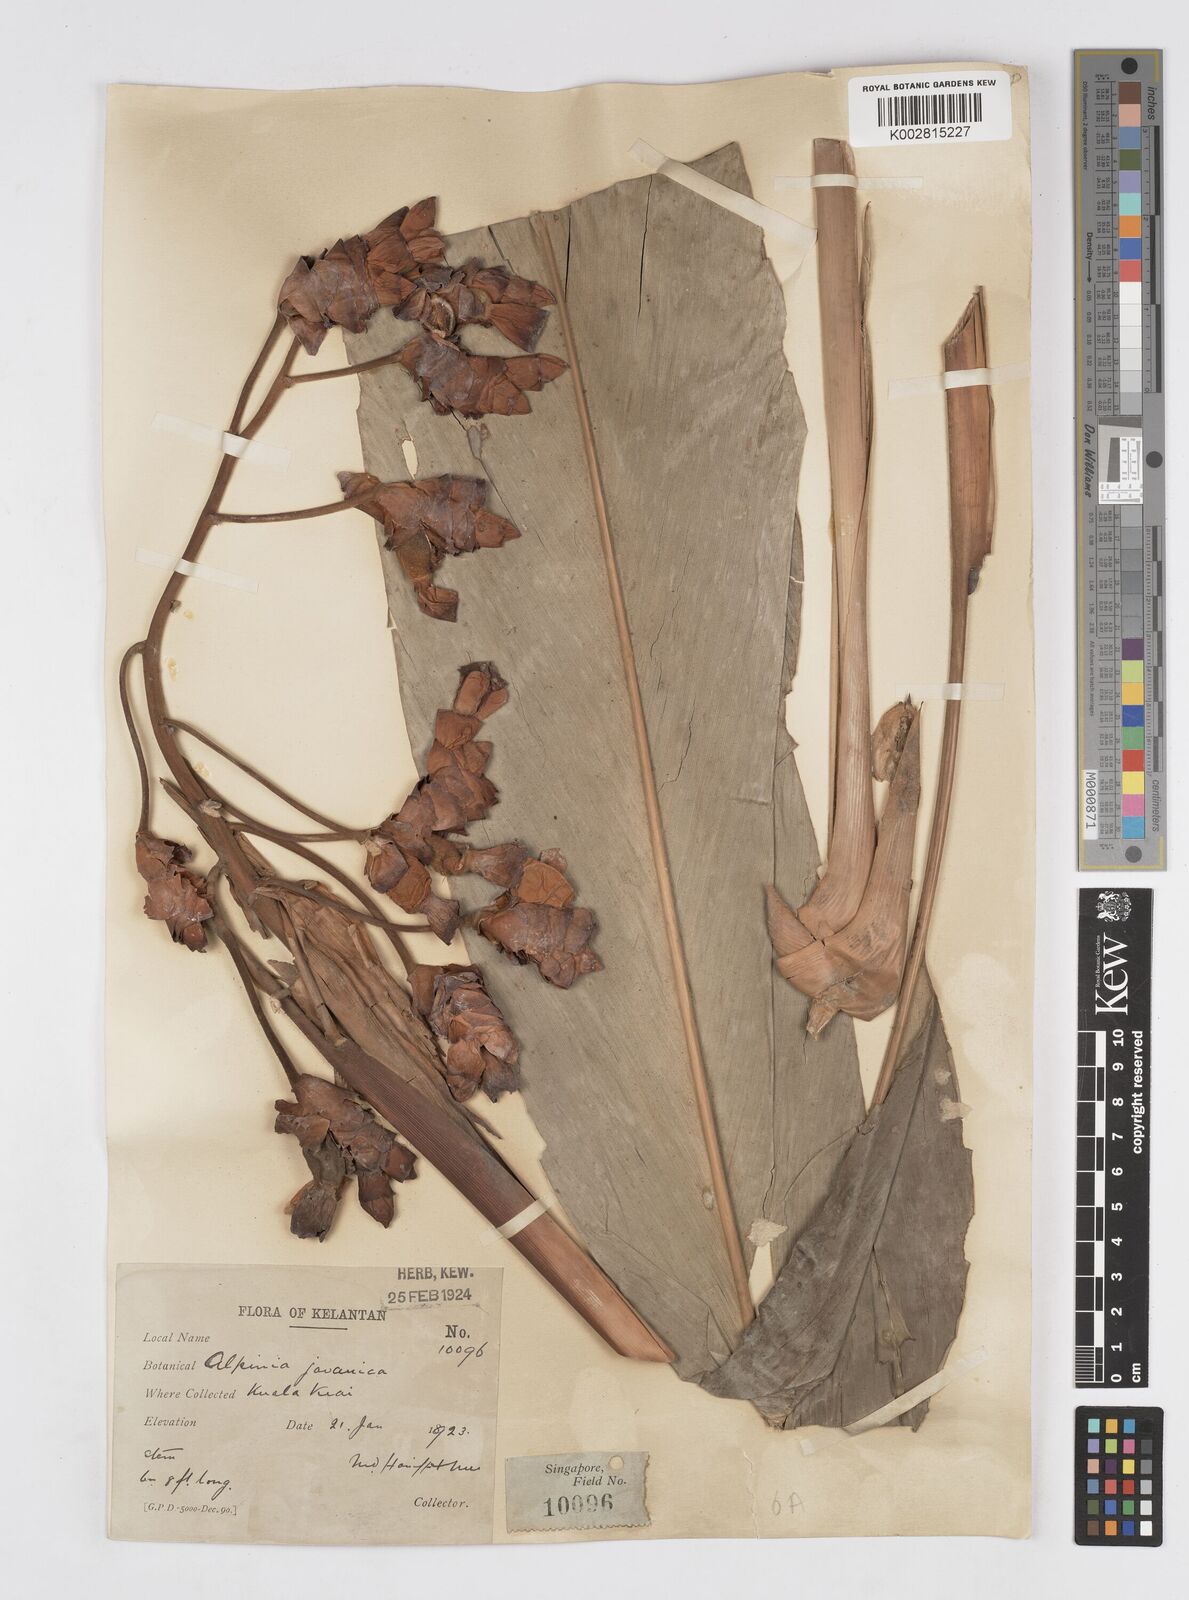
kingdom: Plantae
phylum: Tracheophyta
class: Liliopsida
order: Zingiberales
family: Zingiberaceae
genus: Alpinia
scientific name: Alpinia javanica
